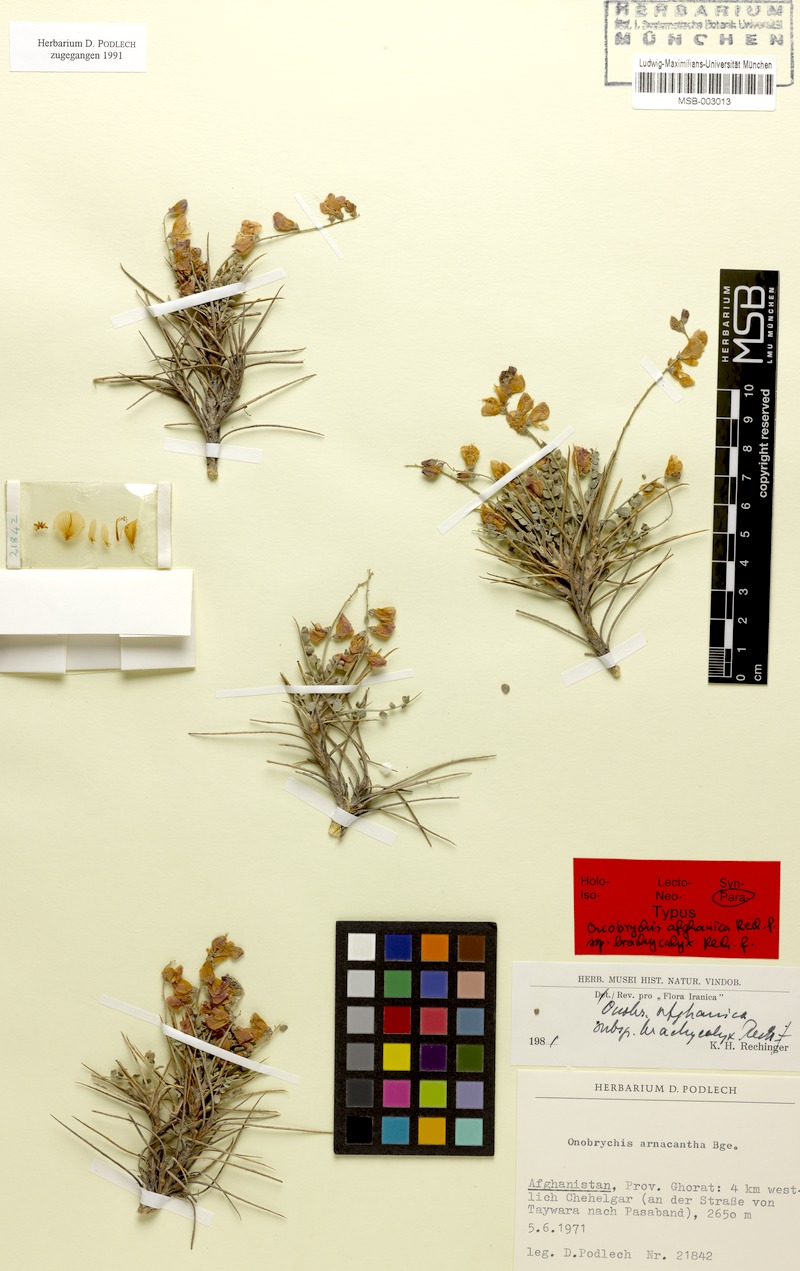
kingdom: Plantae
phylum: Tracheophyta
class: Magnoliopsida
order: Fabales
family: Fabaceae
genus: Onobrychis
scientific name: Onobrychis afghanica
